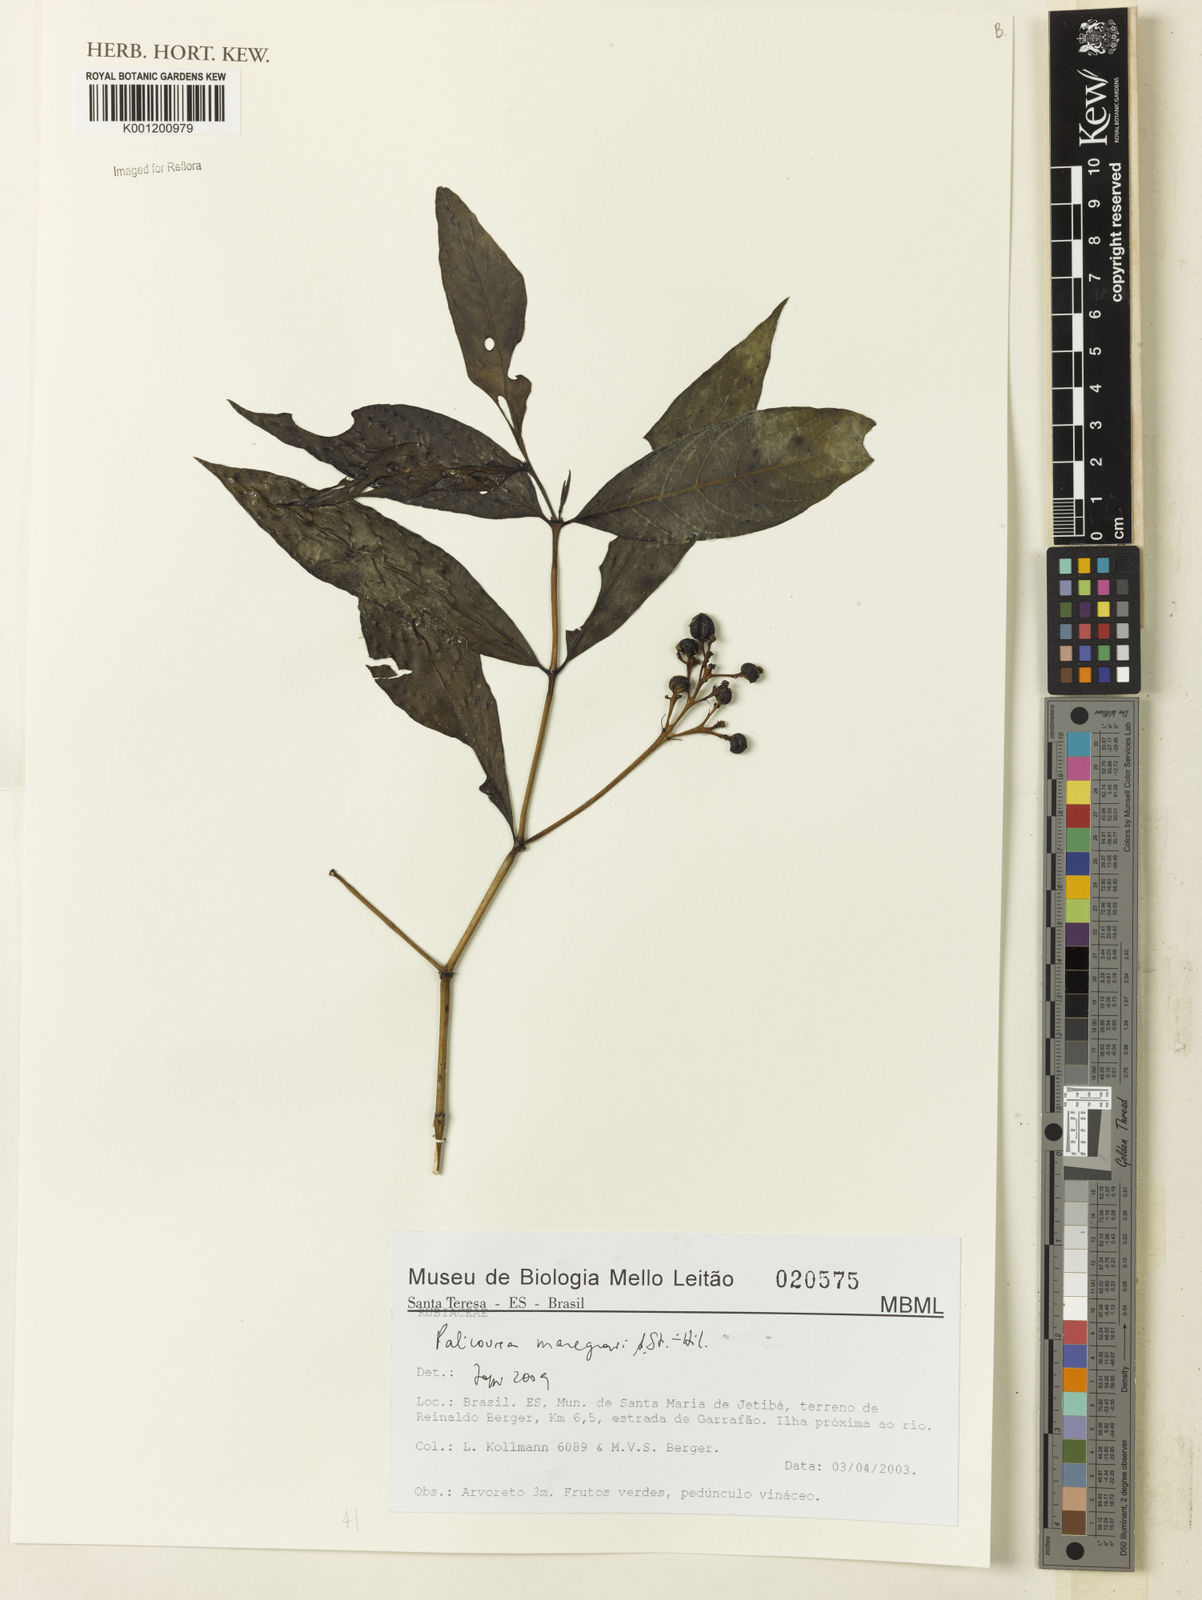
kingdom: Plantae
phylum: Tracheophyta
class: Magnoliopsida
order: Gentianales
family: Rubiaceae
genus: Palicourea
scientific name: Palicourea marcgravii
